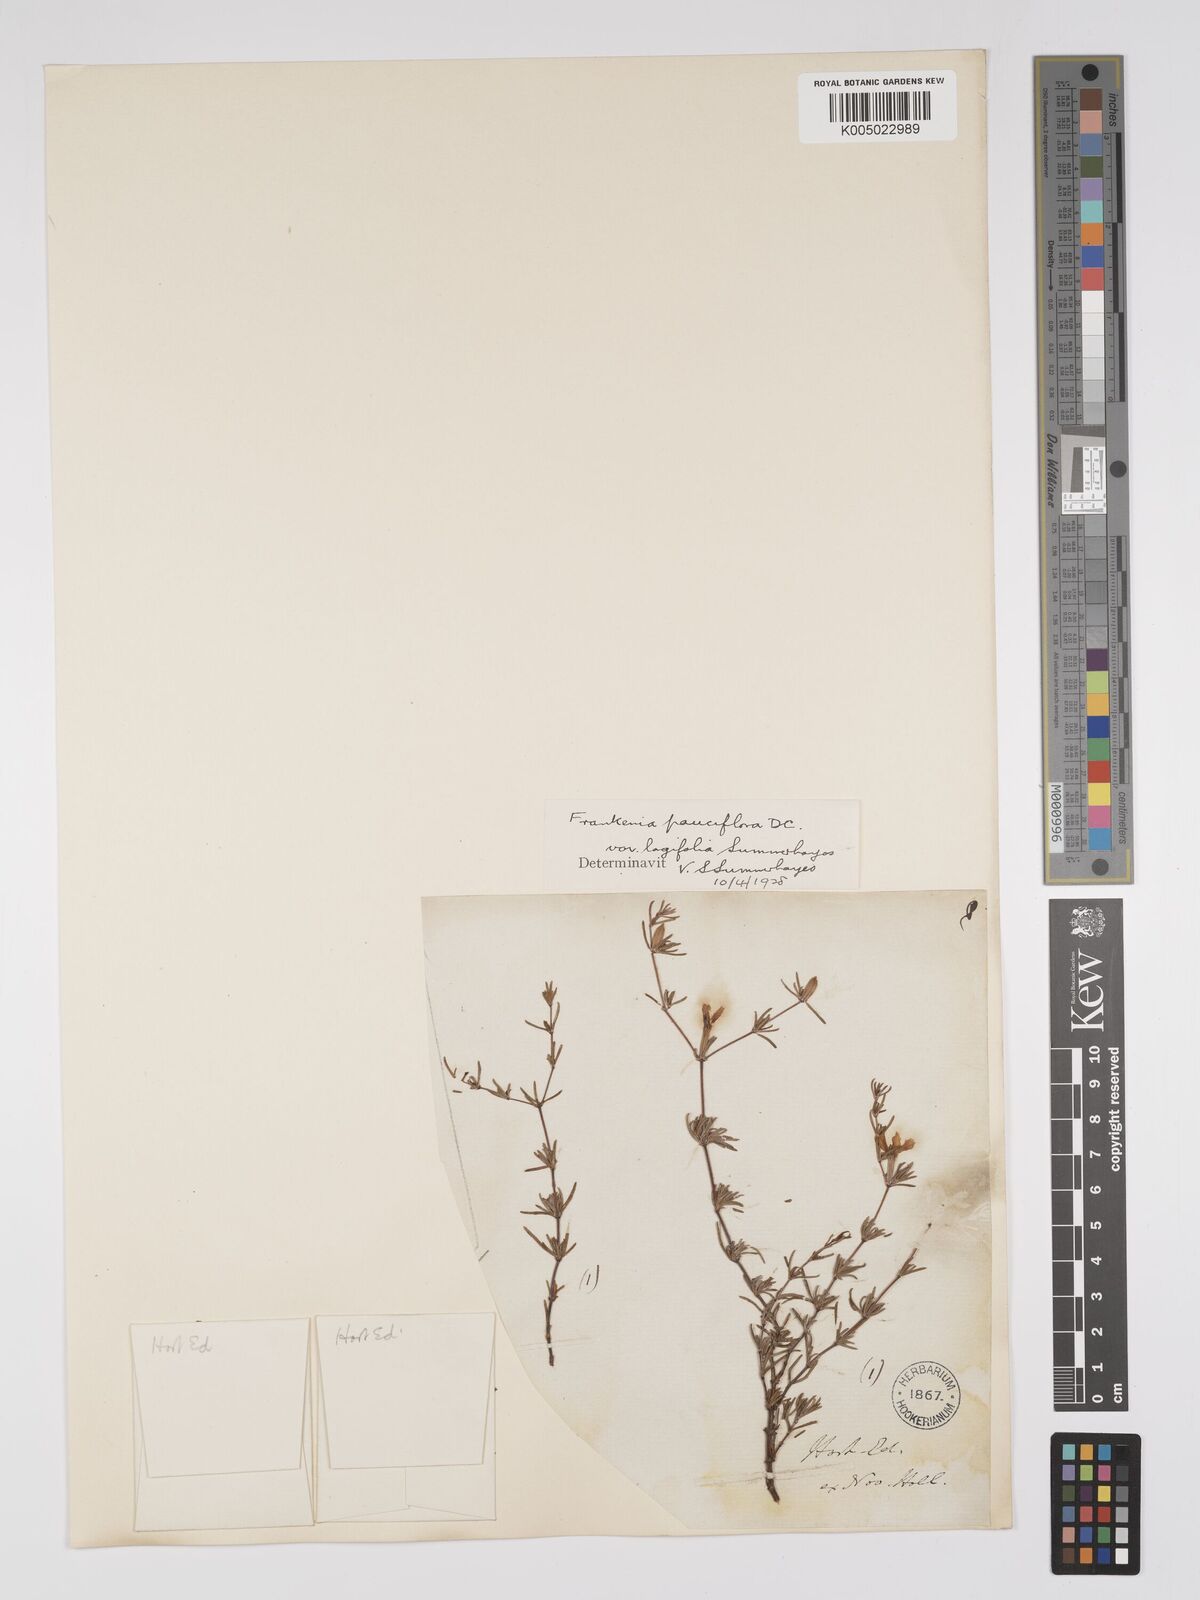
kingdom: Plantae
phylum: Tracheophyta
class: Magnoliopsida
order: Caryophyllales
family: Frankeniaceae
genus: Frankenia
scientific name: Frankenia pauciflora
